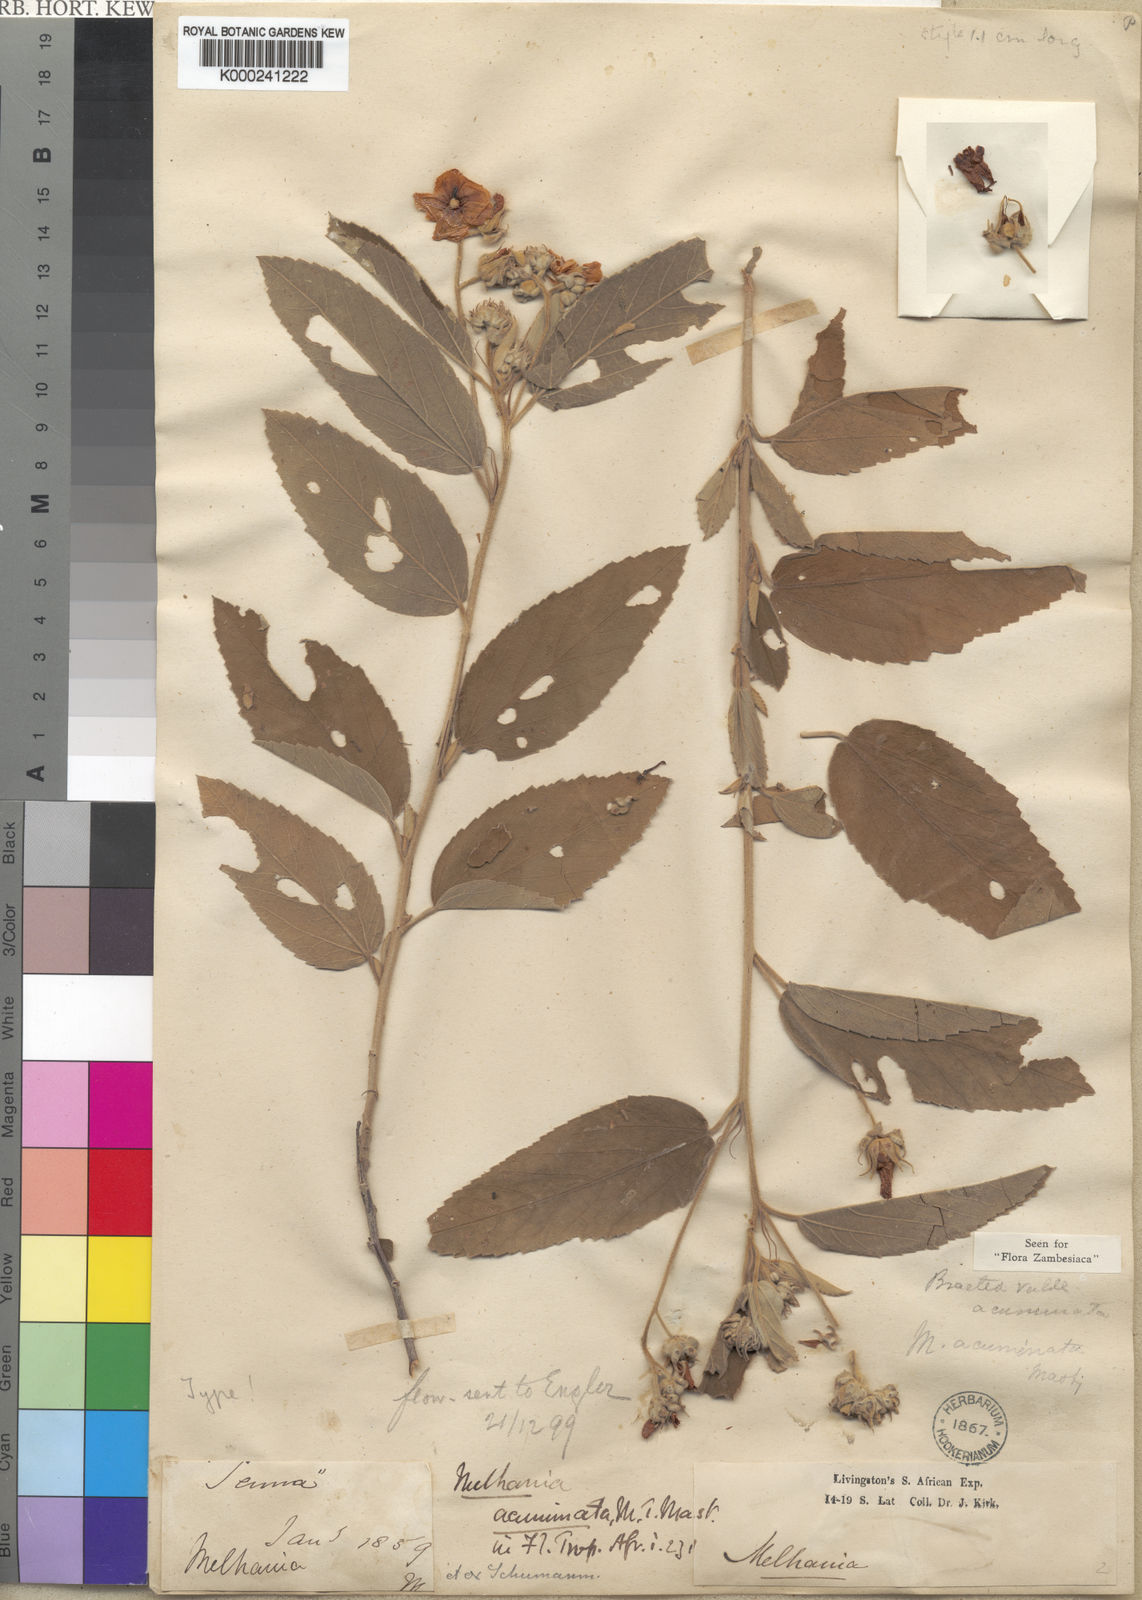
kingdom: Plantae
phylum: Tracheophyta
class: Magnoliopsida
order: Malvales
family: Malvaceae
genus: Melhania
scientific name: Melhania acuminata
